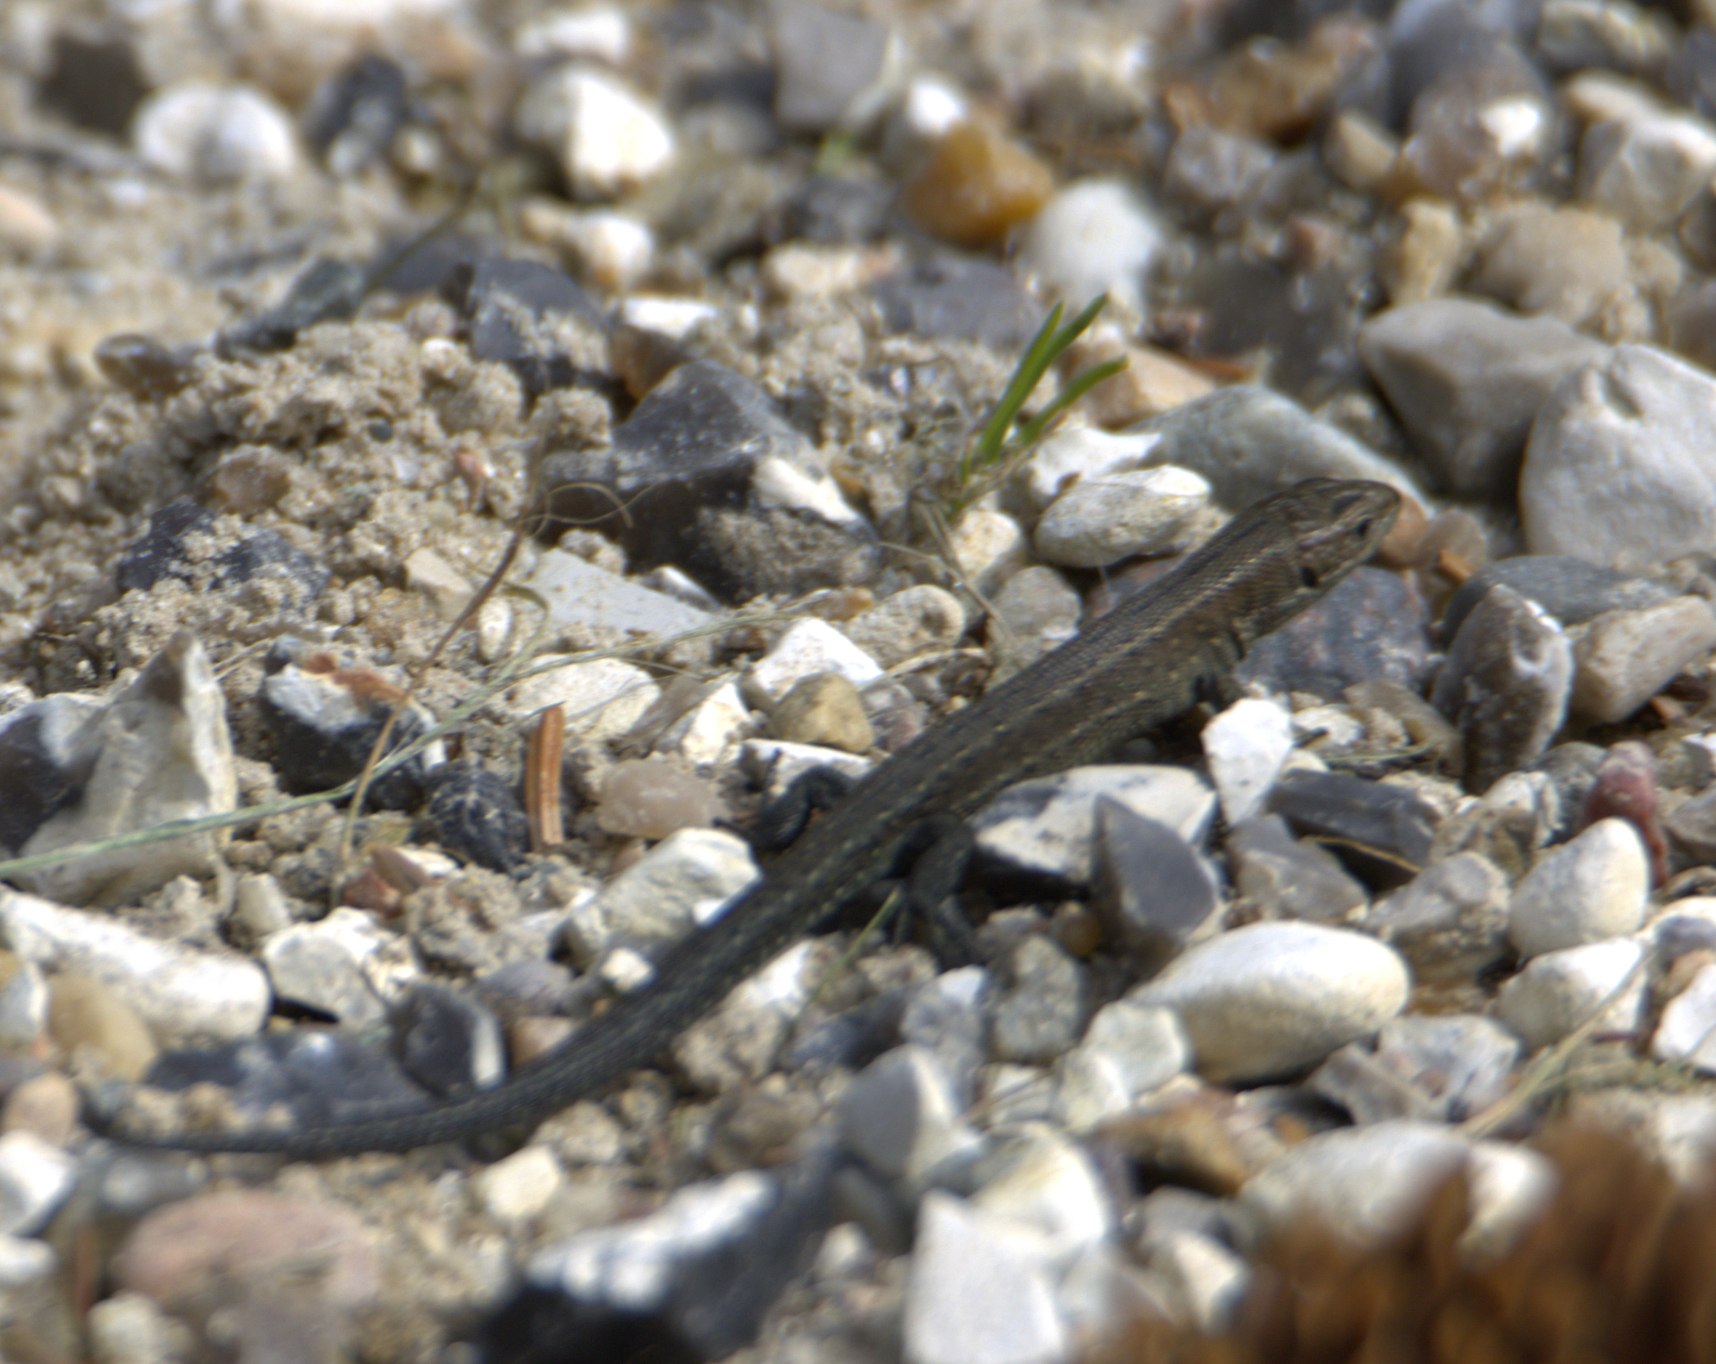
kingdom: Animalia
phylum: Chordata
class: Squamata
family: Lacertidae
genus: Zootoca
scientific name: Zootoca vivipara
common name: Skovfirben
